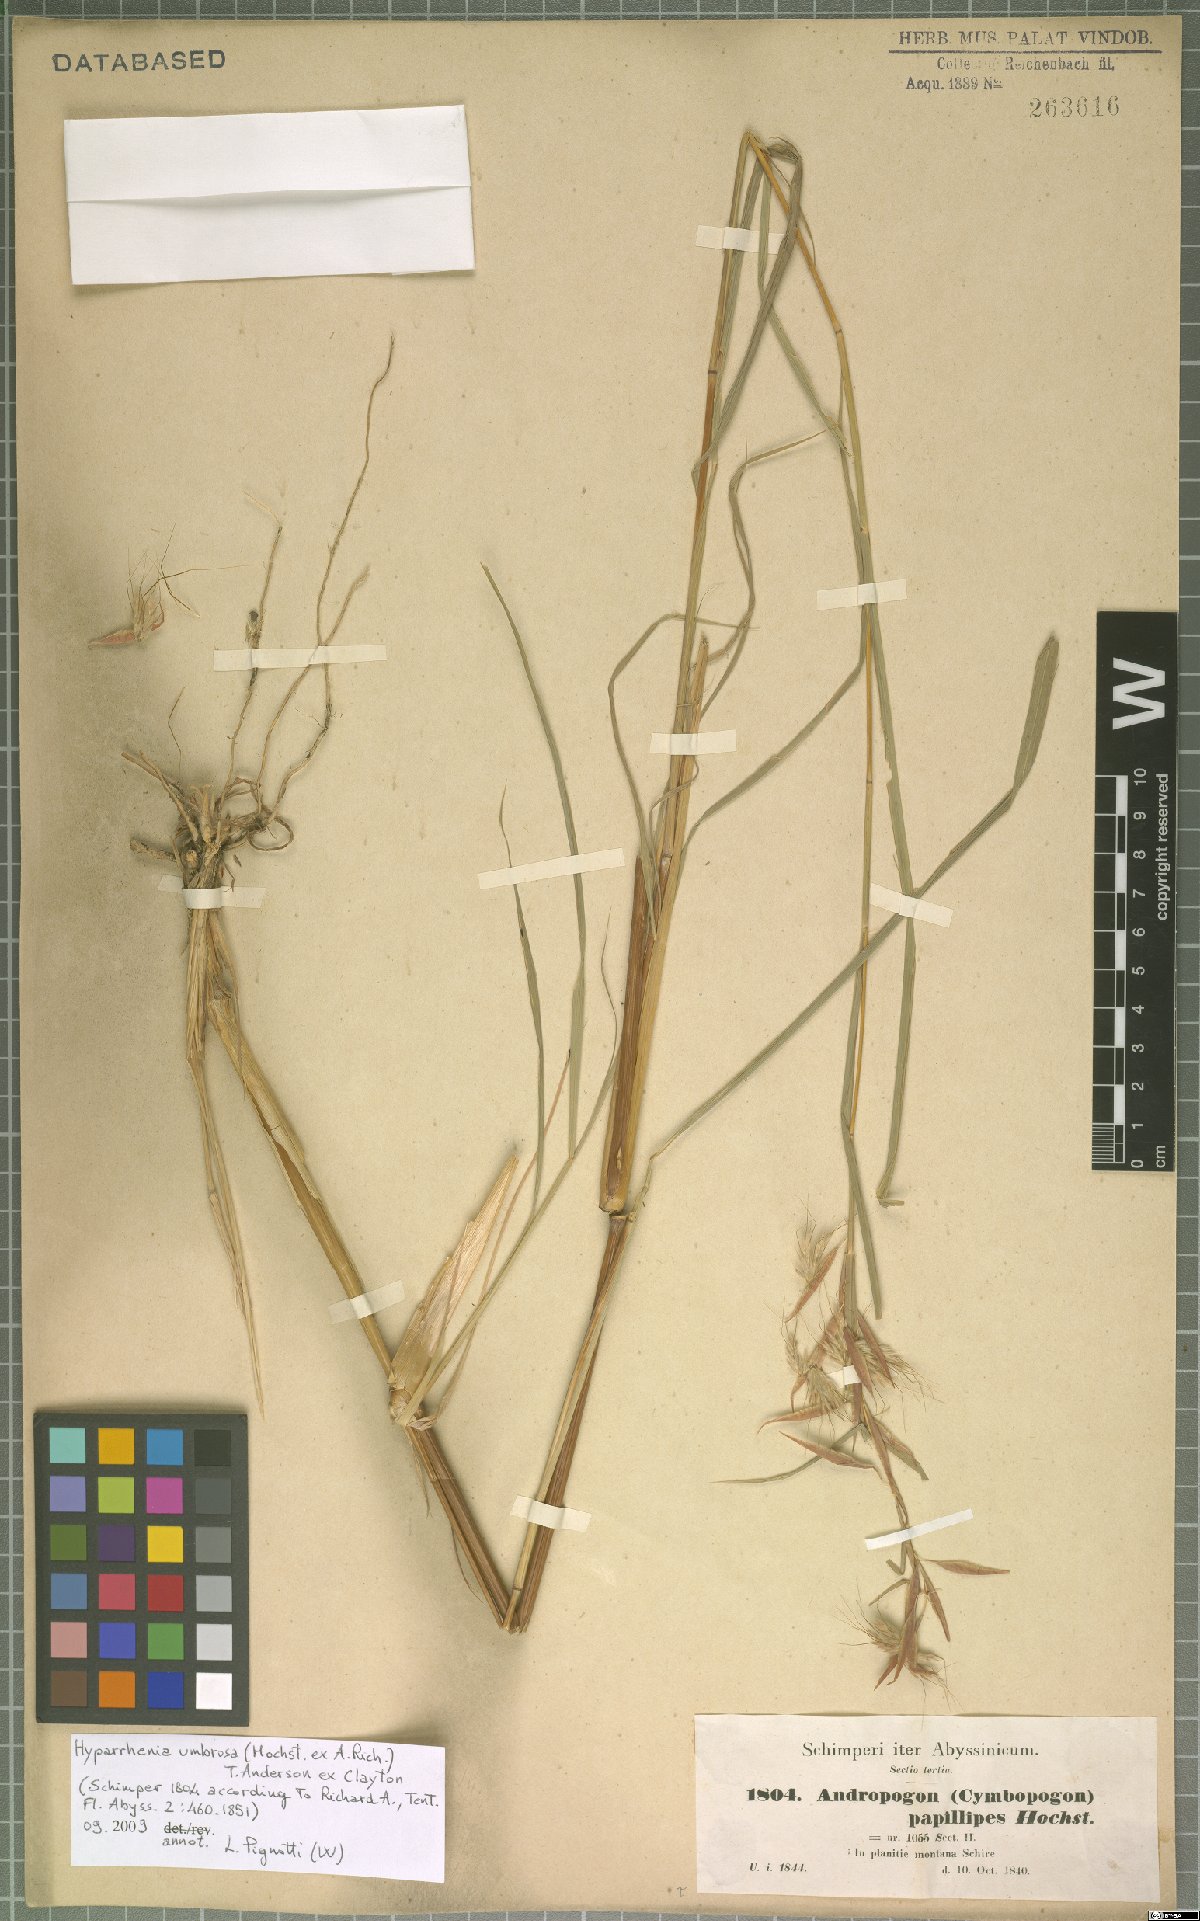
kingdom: Plantae
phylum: Tracheophyta
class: Liliopsida
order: Poales
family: Poaceae
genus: Hyparrhenia
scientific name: Hyparrhenia umbrosa
